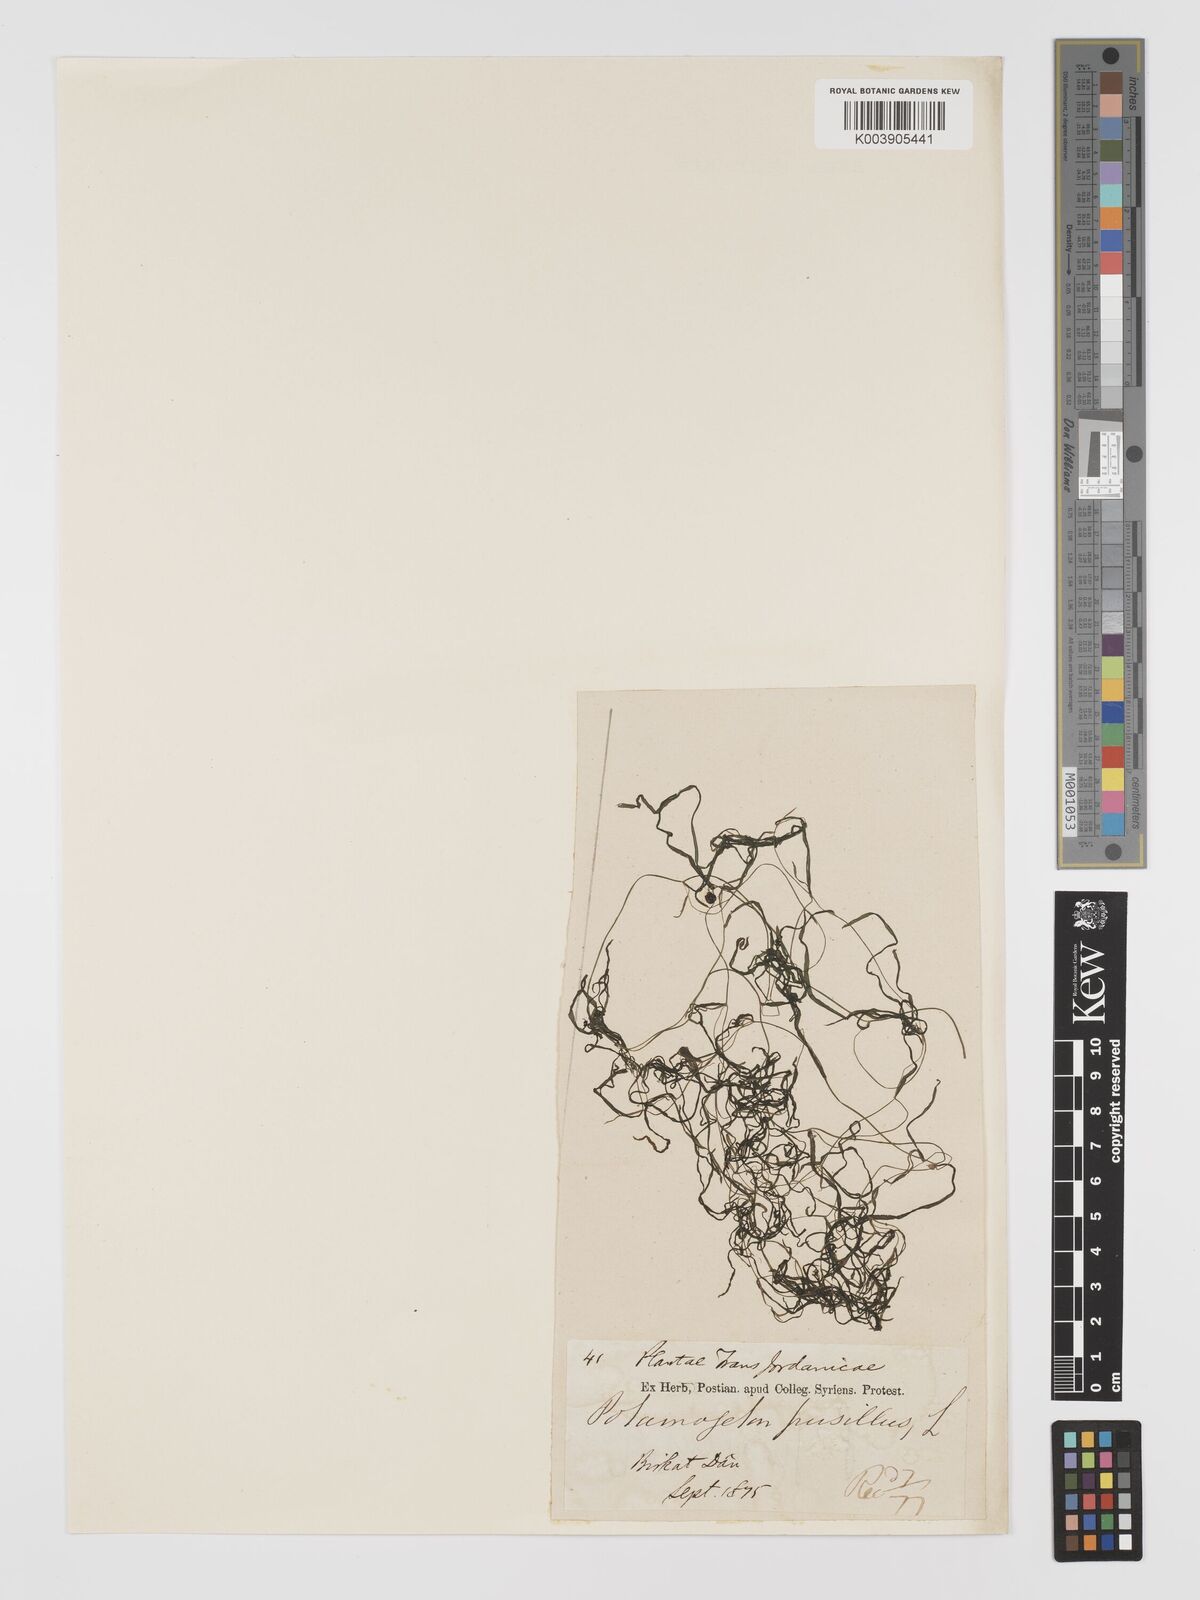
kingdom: Plantae
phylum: Tracheophyta
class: Liliopsida
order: Alismatales
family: Potamogetonaceae
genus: Potamogeton
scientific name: Potamogeton pusillus
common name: Lesser pondweed
